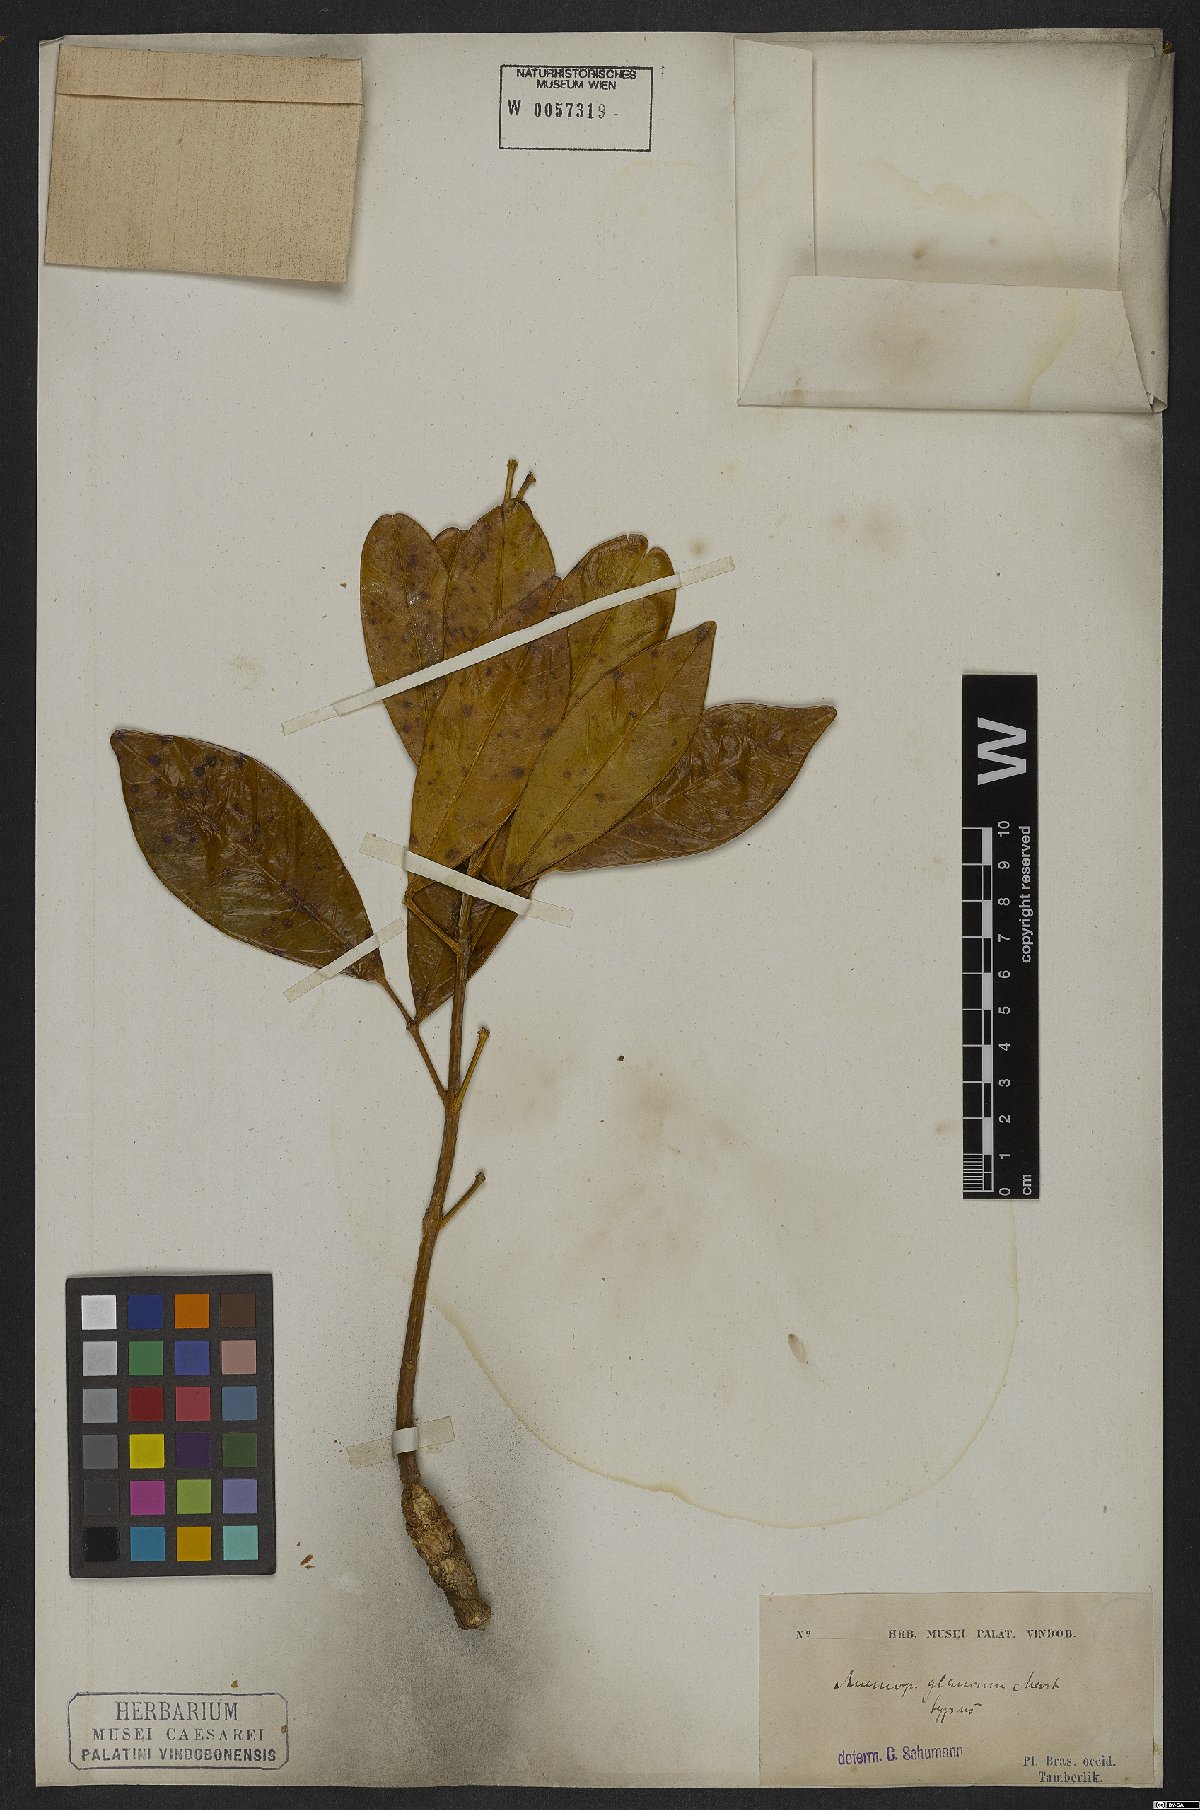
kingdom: Plantae
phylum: Tracheophyta
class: Magnoliopsida
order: Lamiales
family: Bignoniaceae
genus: Anemopaegma
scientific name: Anemopaegma glaucum
